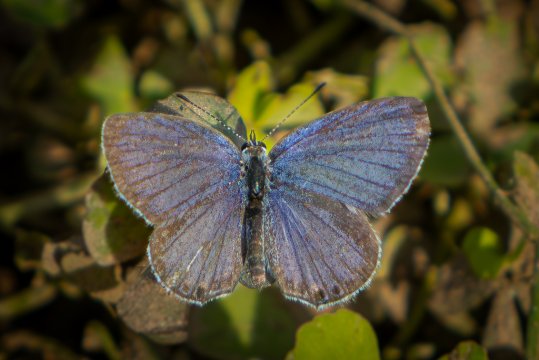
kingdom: Animalia
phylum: Arthropoda
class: Insecta
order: Lepidoptera
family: Lycaenidae
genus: Elkalyce
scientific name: Elkalyce comyntas
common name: Eastern Tailed-Blue
